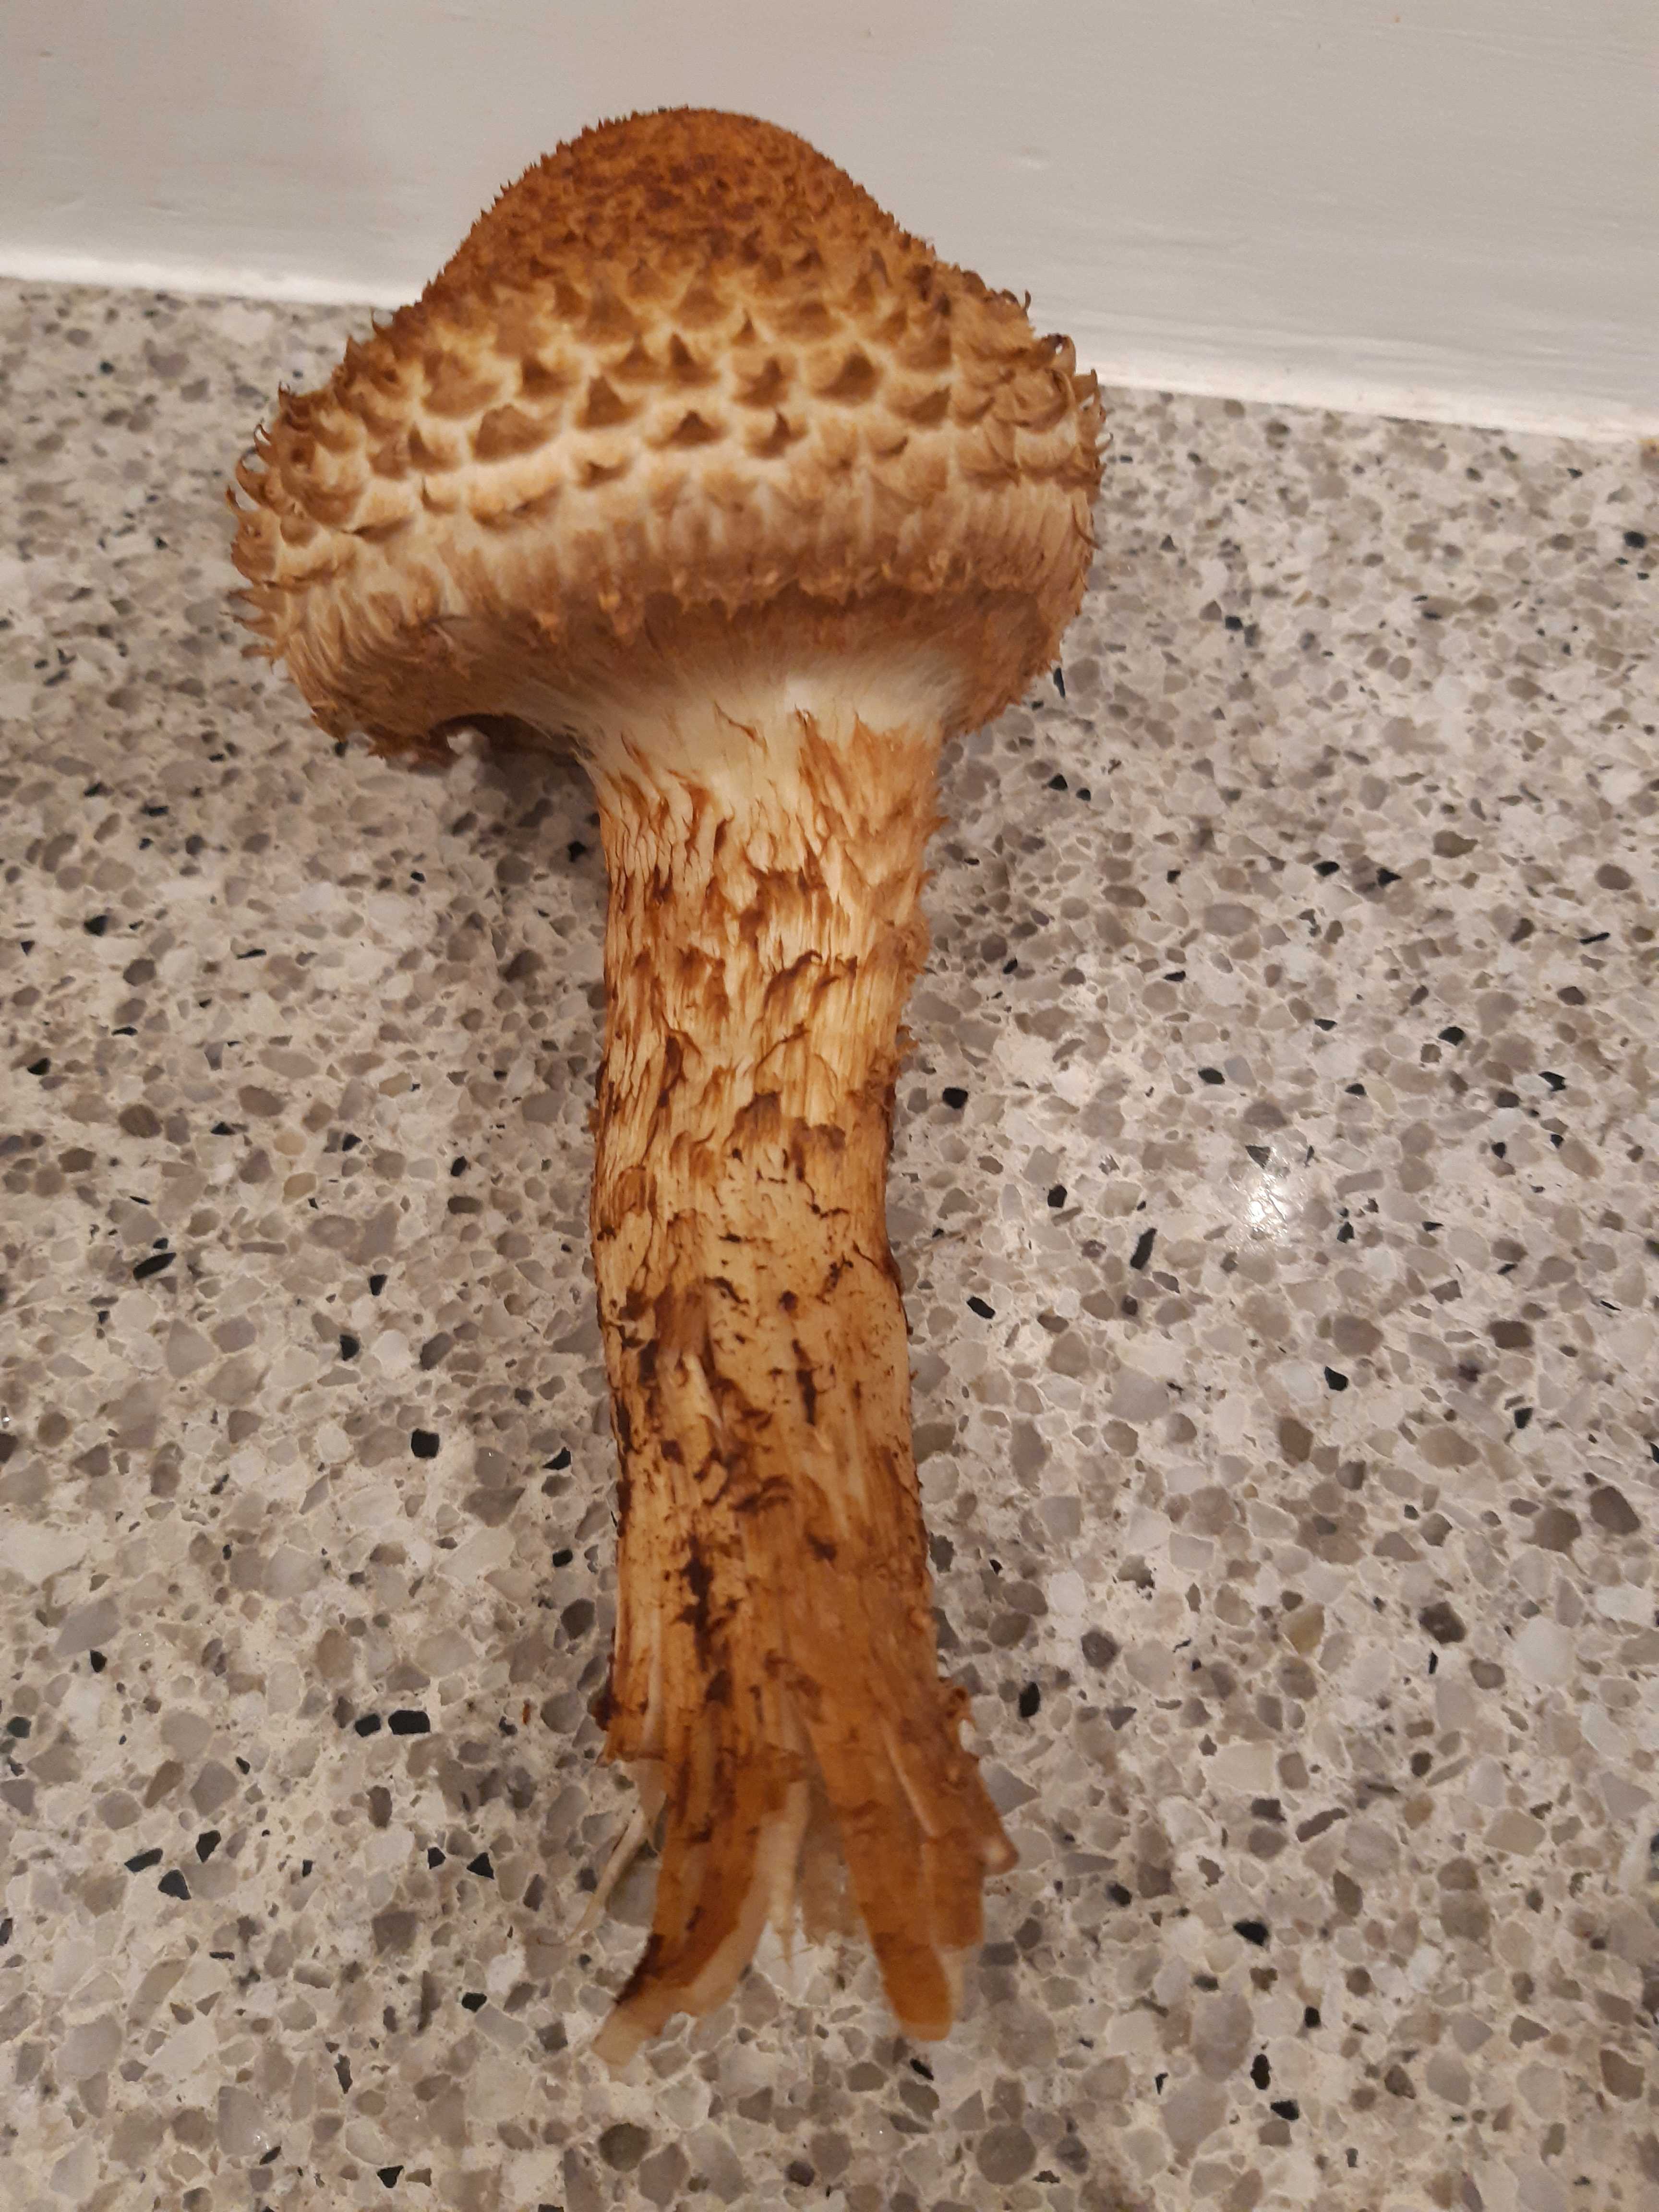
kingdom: Fungi
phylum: Basidiomycota
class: Agaricomycetes
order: Agaricales
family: Strophariaceae
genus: Pholiota
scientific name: Pholiota squarrosa
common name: krumskællet skælhat
